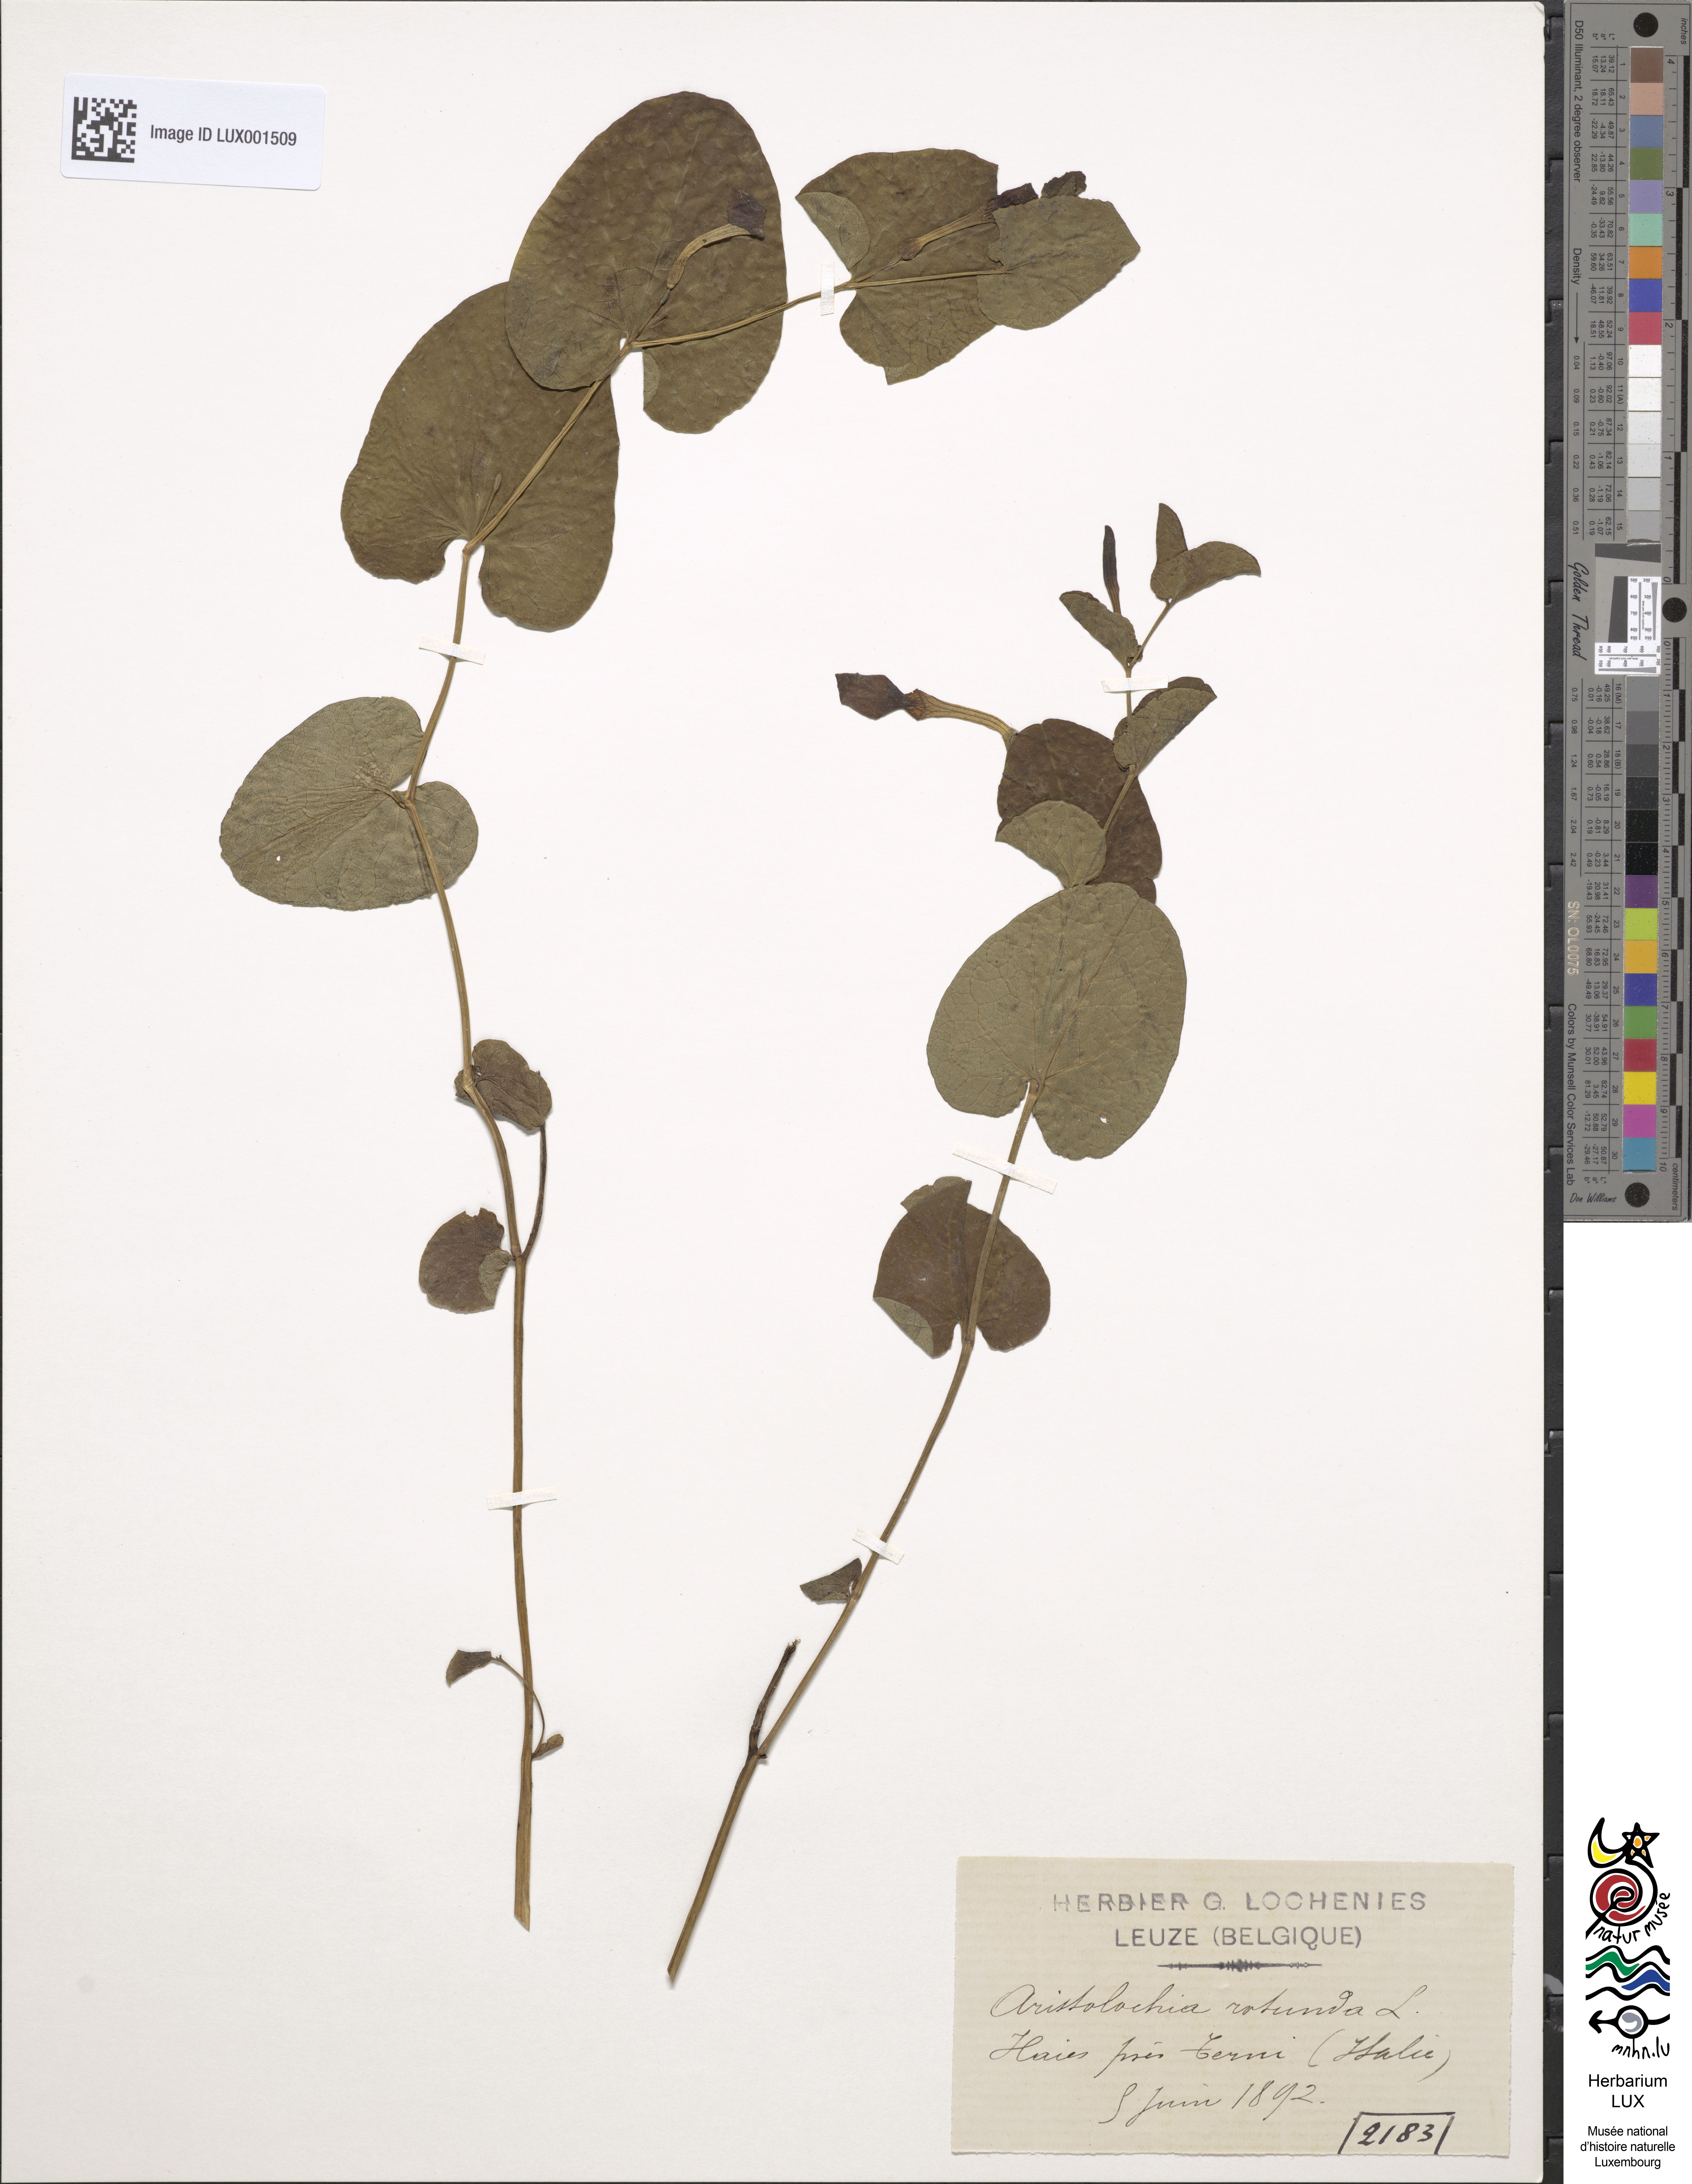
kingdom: Plantae
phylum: Tracheophyta
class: Magnoliopsida
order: Piperales
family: Aristolochiaceae
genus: Aristolochia
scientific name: Aristolochia rotunda
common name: Smearwort
